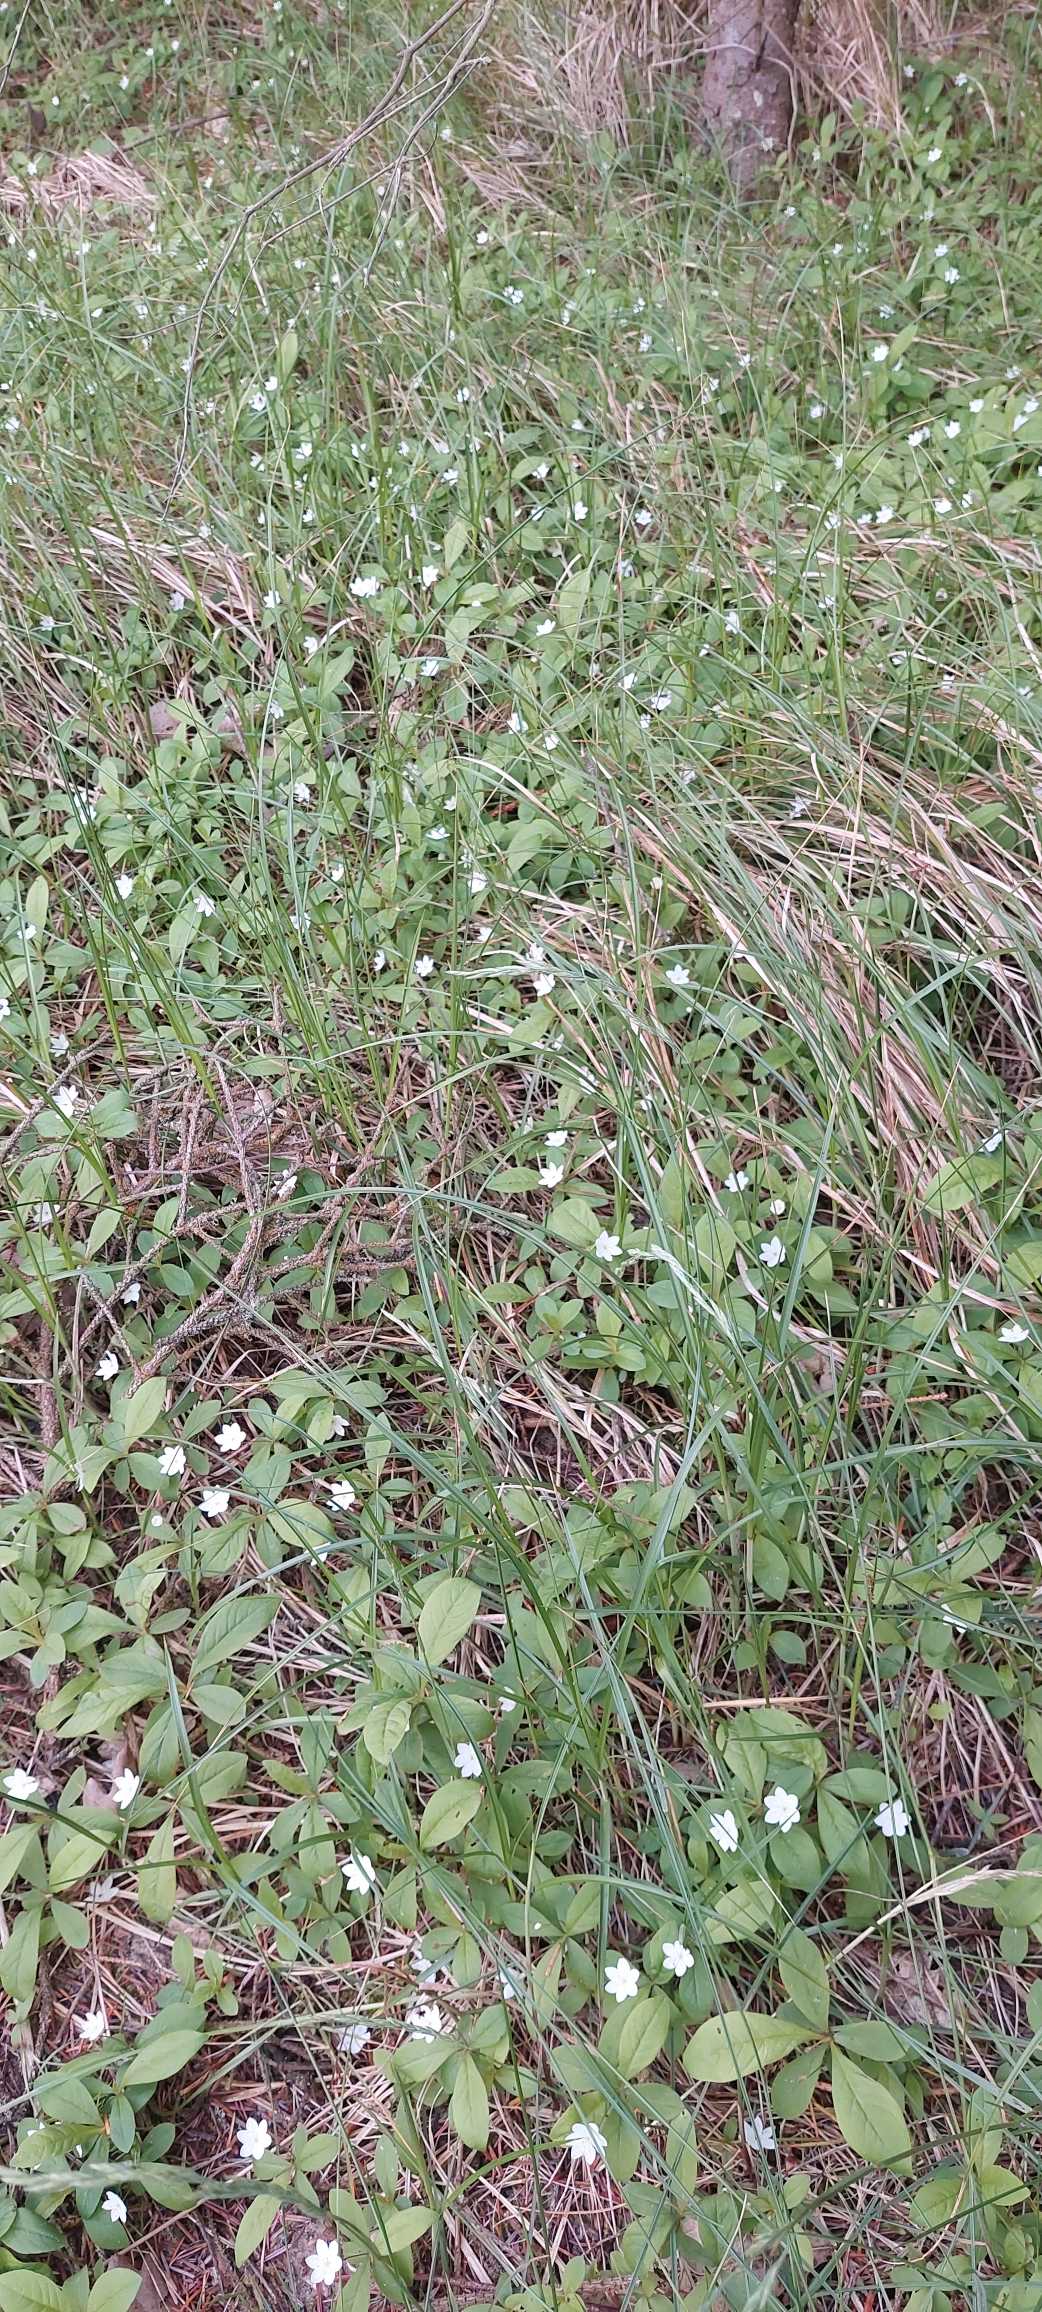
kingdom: Plantae
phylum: Tracheophyta
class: Magnoliopsida
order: Ericales
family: Primulaceae
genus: Lysimachia
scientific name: Lysimachia europaea
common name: Skovstjerne
